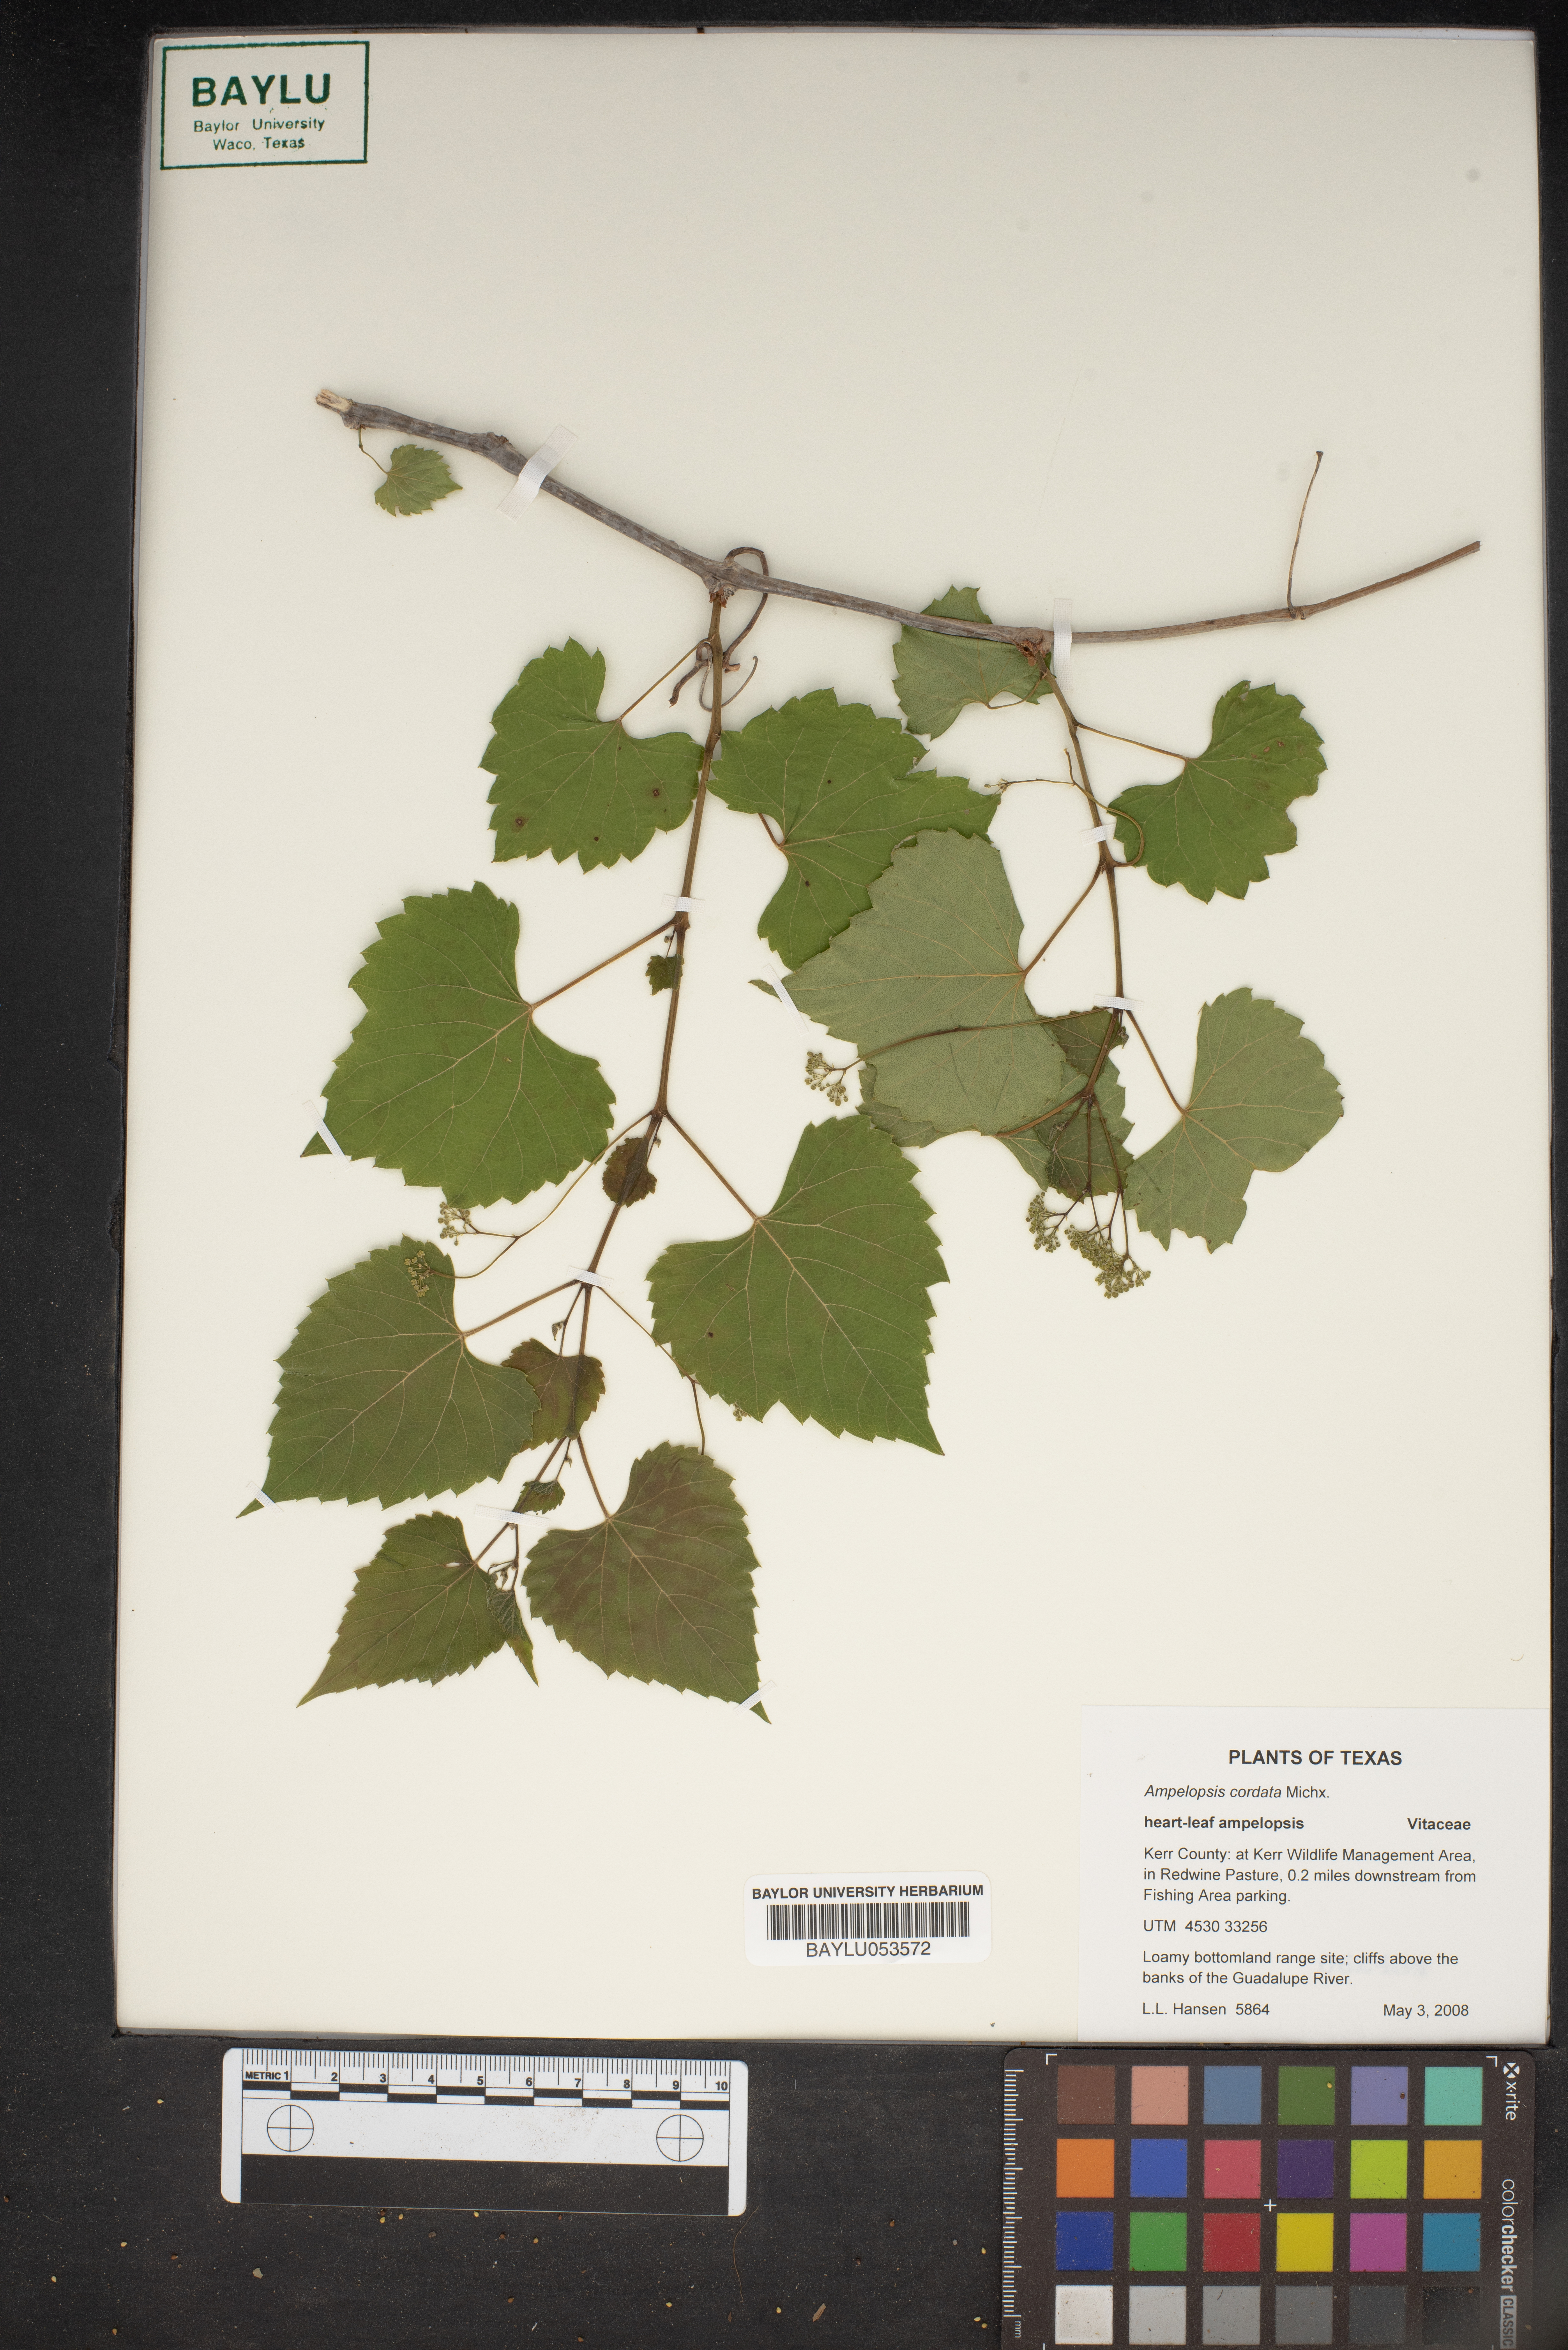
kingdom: Plantae
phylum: Tracheophyta
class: Magnoliopsida
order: Vitales
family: Vitaceae
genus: Ampelopsis
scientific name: Ampelopsis cordata
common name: Heart-leaf ampelopsis
